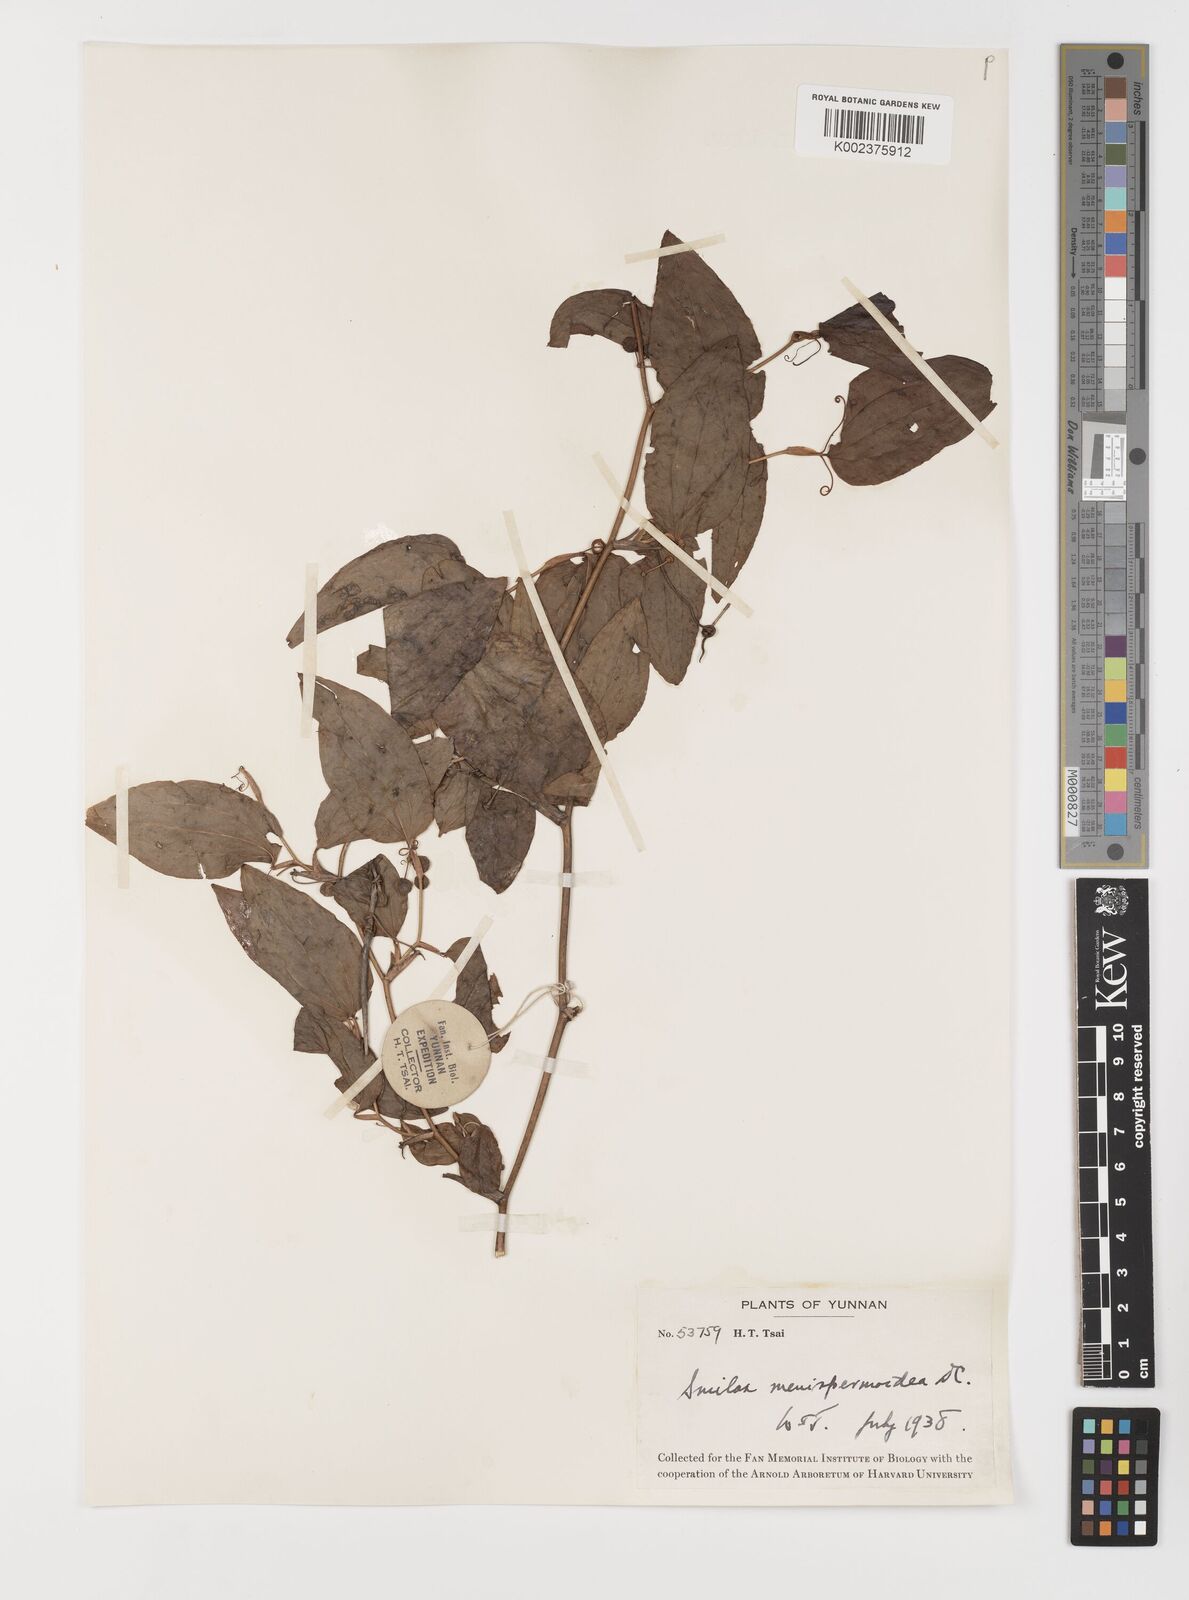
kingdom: Plantae
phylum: Tracheophyta
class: Liliopsida
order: Liliales
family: Smilacaceae
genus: Smilax
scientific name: Smilax menispermoidea
